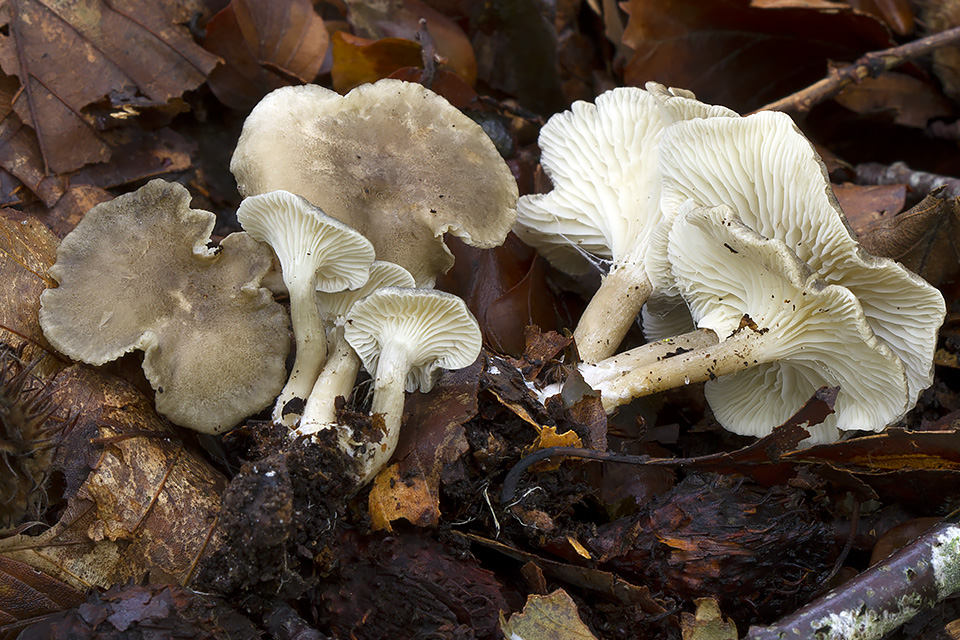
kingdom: Fungi
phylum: Basidiomycota
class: Agaricomycetes
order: Agaricales
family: Hygrophoraceae
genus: Spodocybe
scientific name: Spodocybe trulliformis
